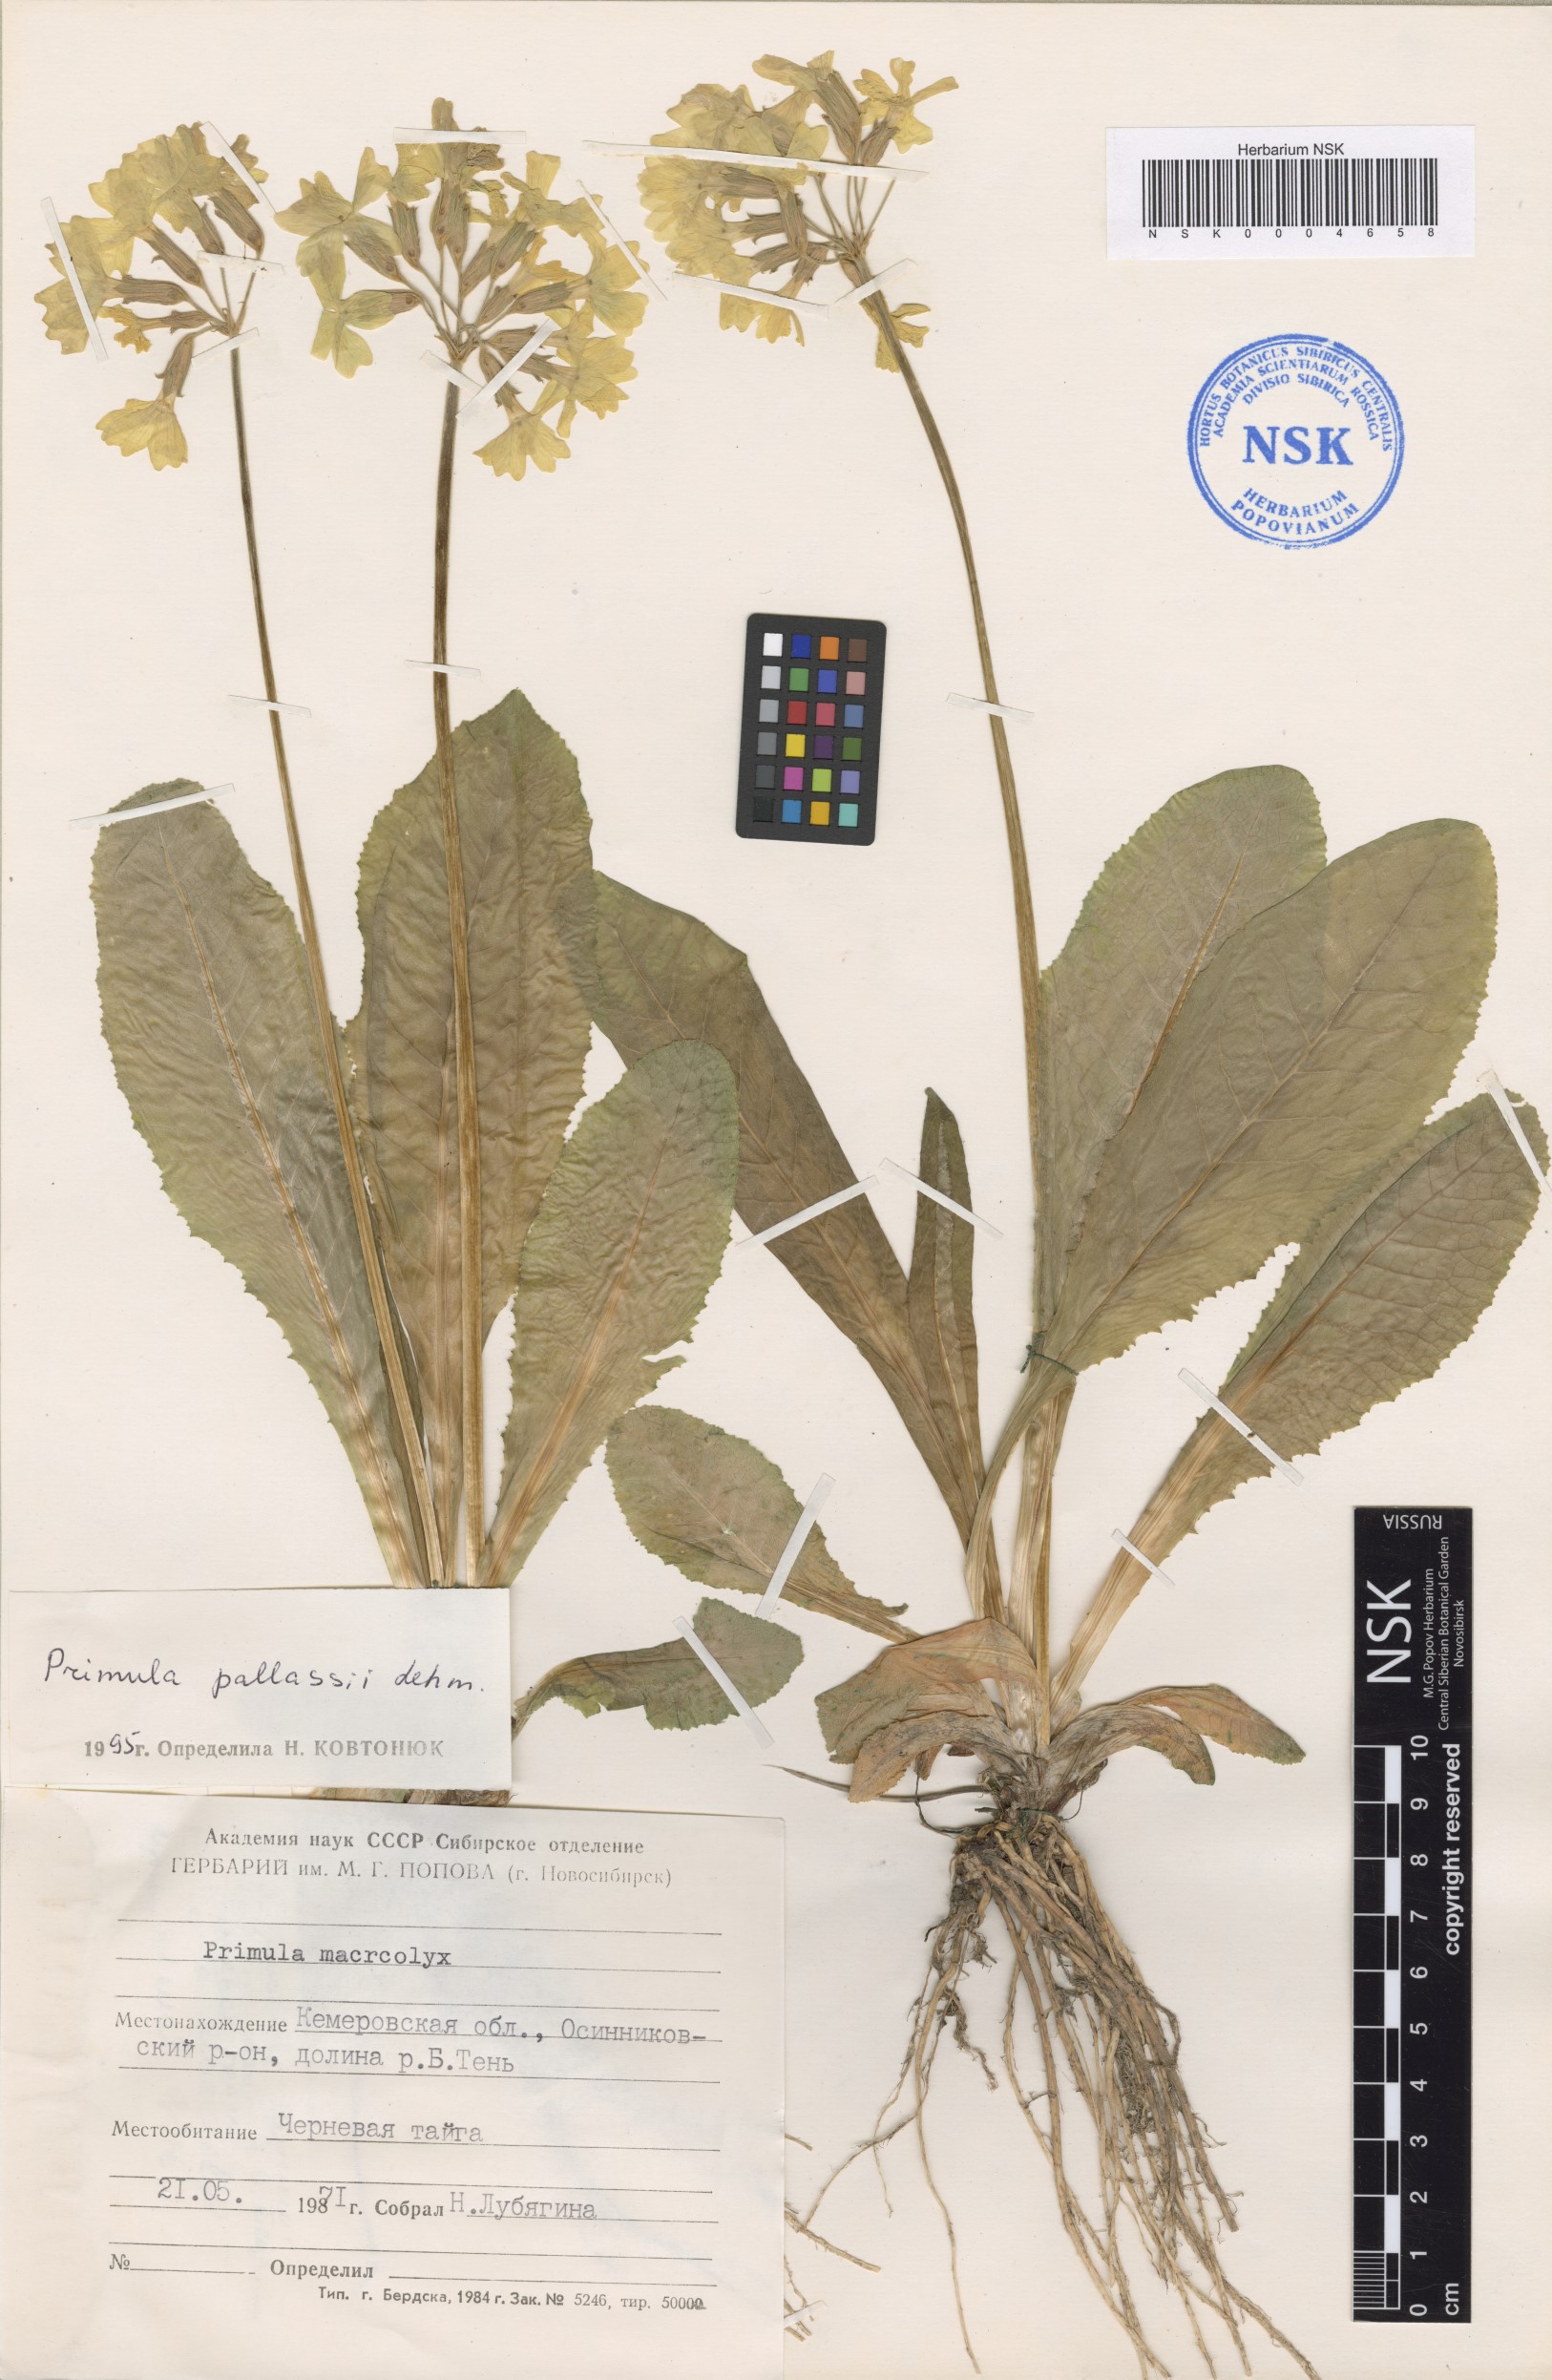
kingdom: Plantae
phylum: Tracheophyta
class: Magnoliopsida
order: Ericales
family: Primulaceae
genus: Primula
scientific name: Primula elatior
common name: Oxlip
